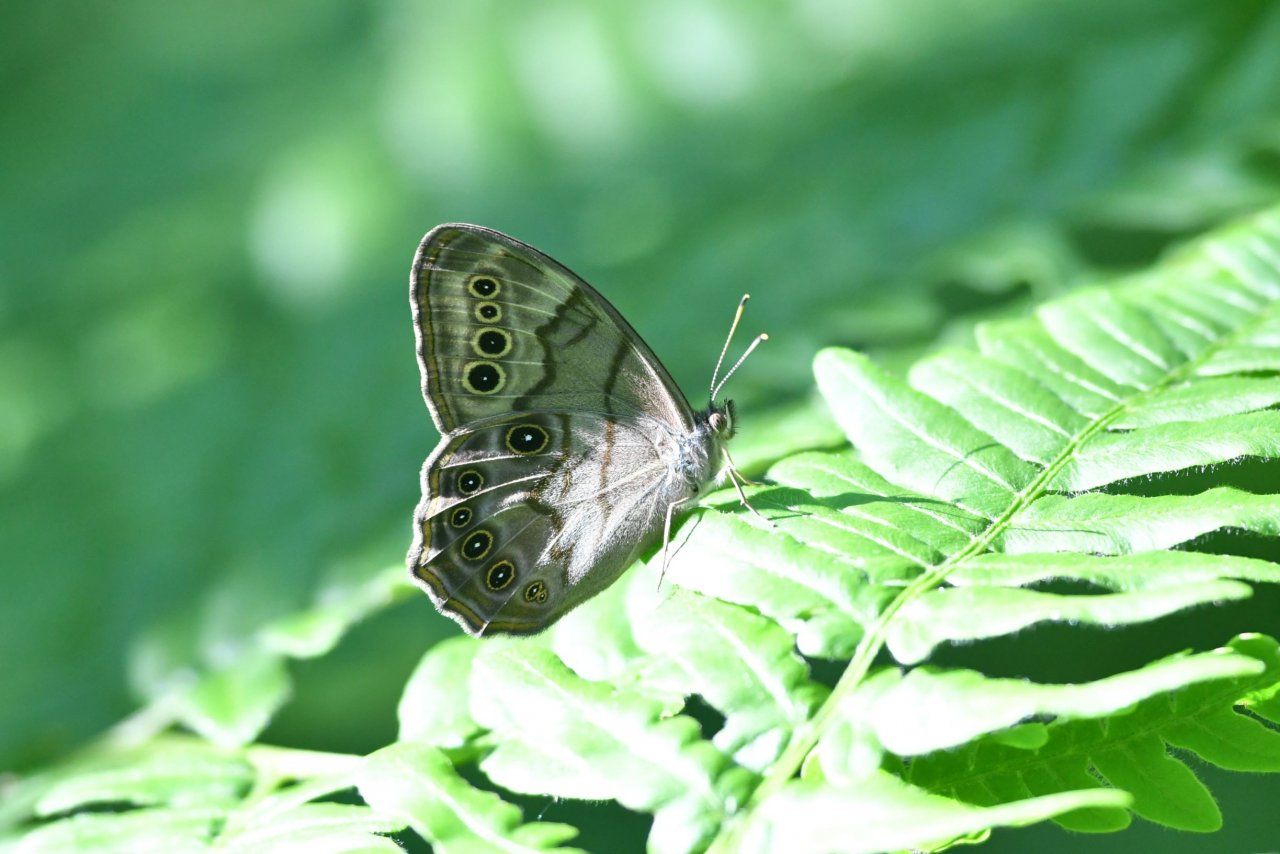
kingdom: Animalia
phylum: Arthropoda
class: Insecta
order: Lepidoptera
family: Nymphalidae
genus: Lethe
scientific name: Lethe anthedon
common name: Northern Pearly-Eye
